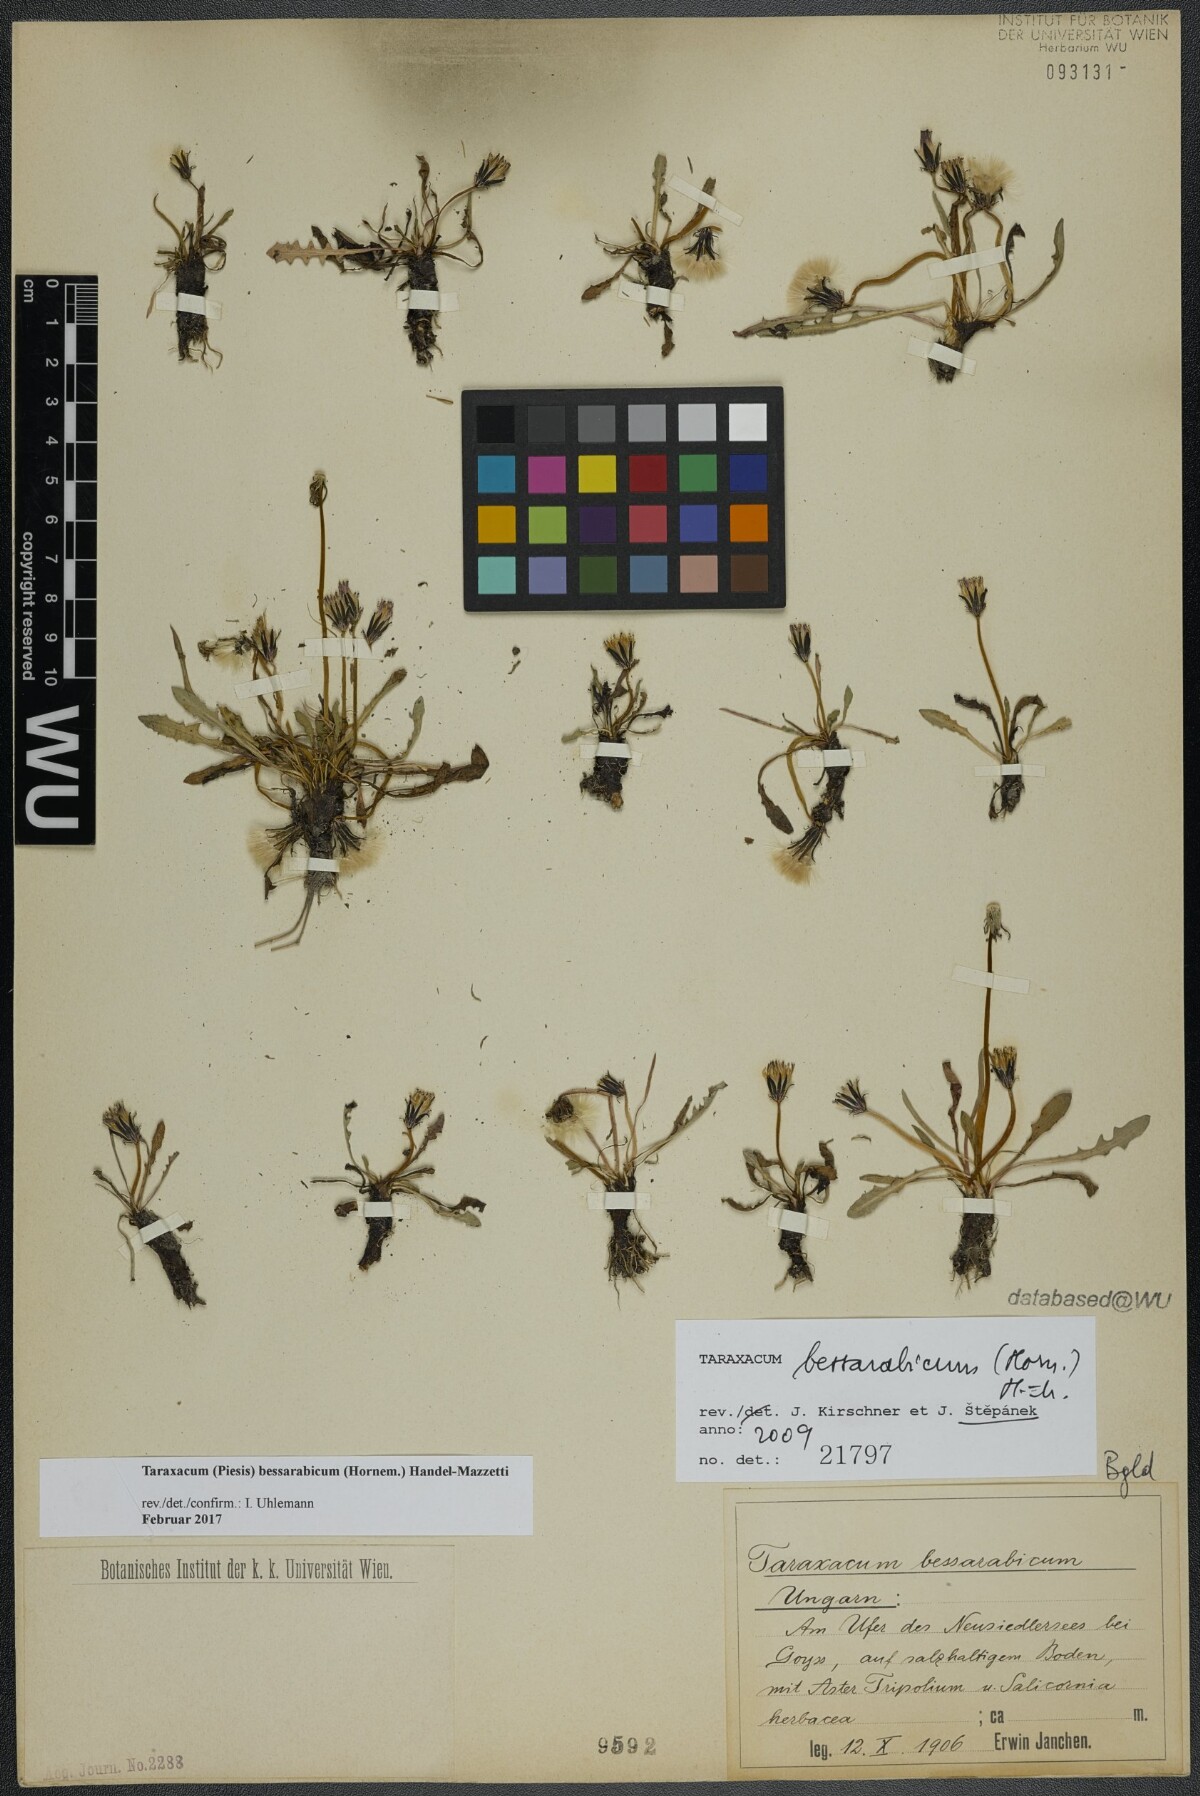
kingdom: Plantae
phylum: Tracheophyta
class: Magnoliopsida
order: Asterales
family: Asteraceae
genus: Taraxacum
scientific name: Taraxacum bessarabicum
